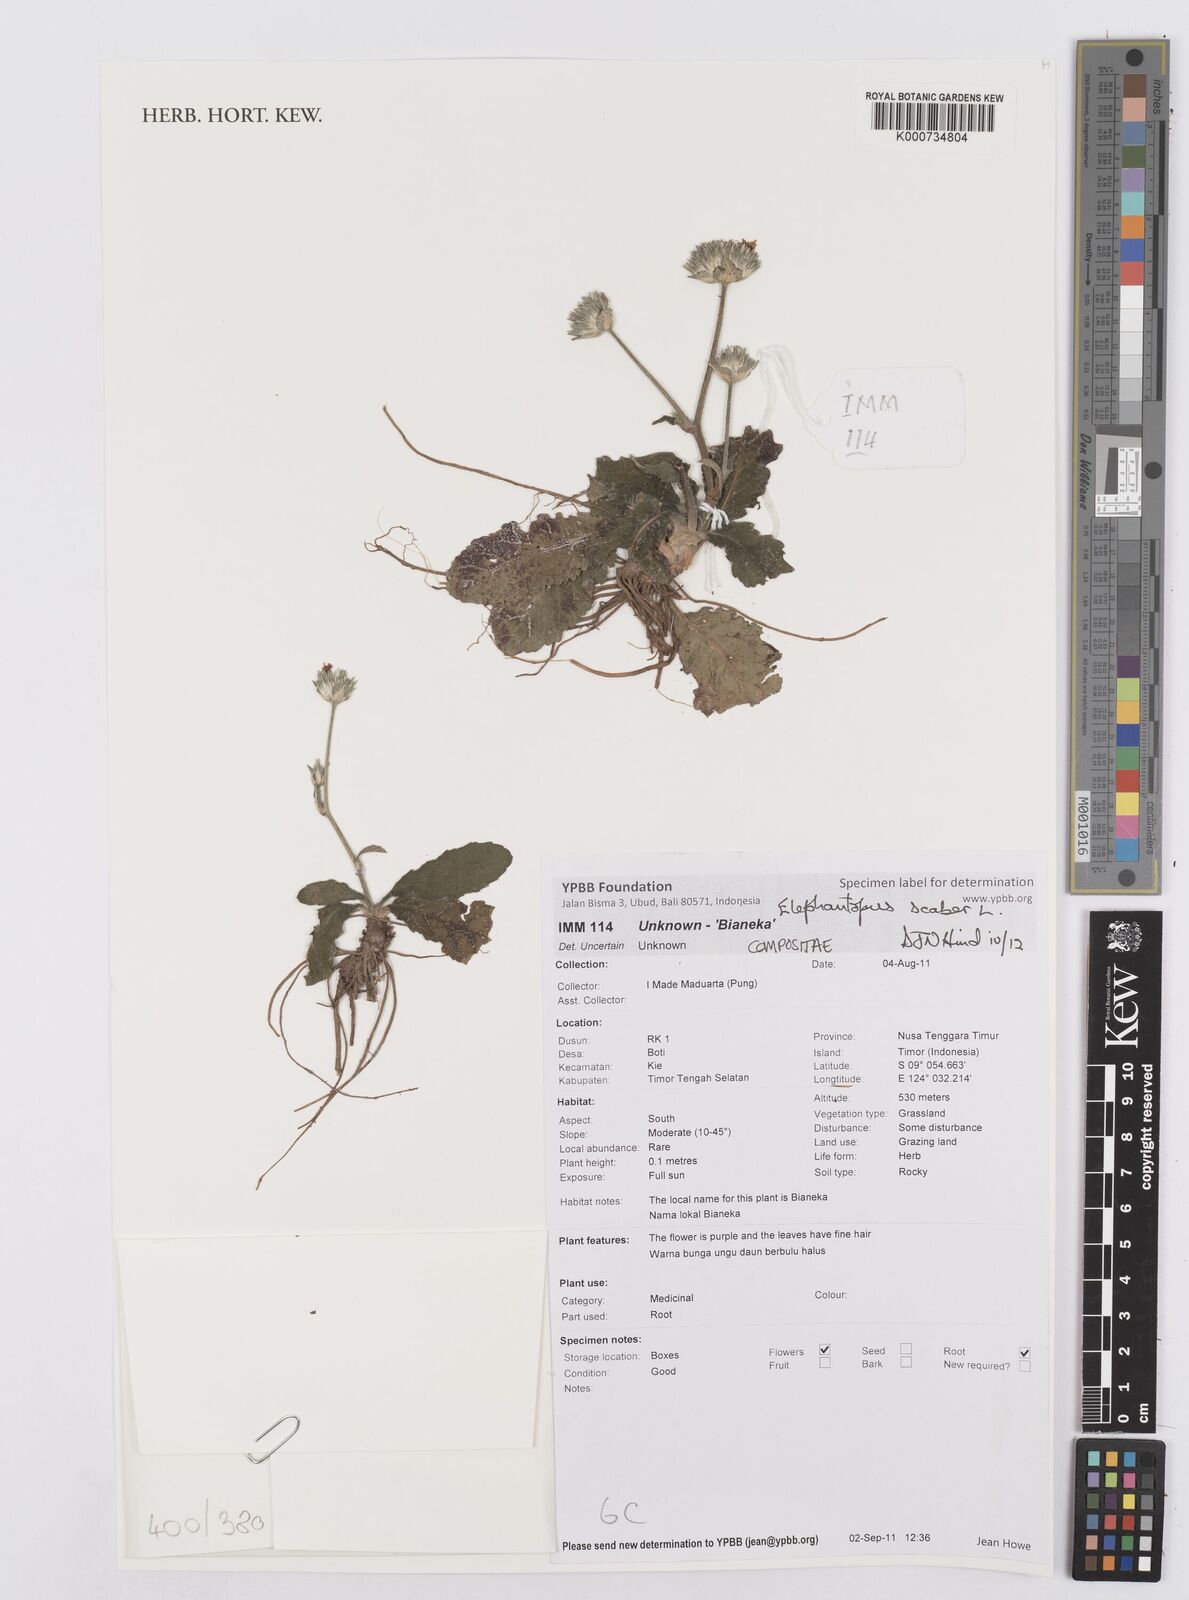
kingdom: Plantae
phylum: Tracheophyta
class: Magnoliopsida
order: Asterales
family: Asteraceae
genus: Elephantopus
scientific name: Elephantopus scaber
